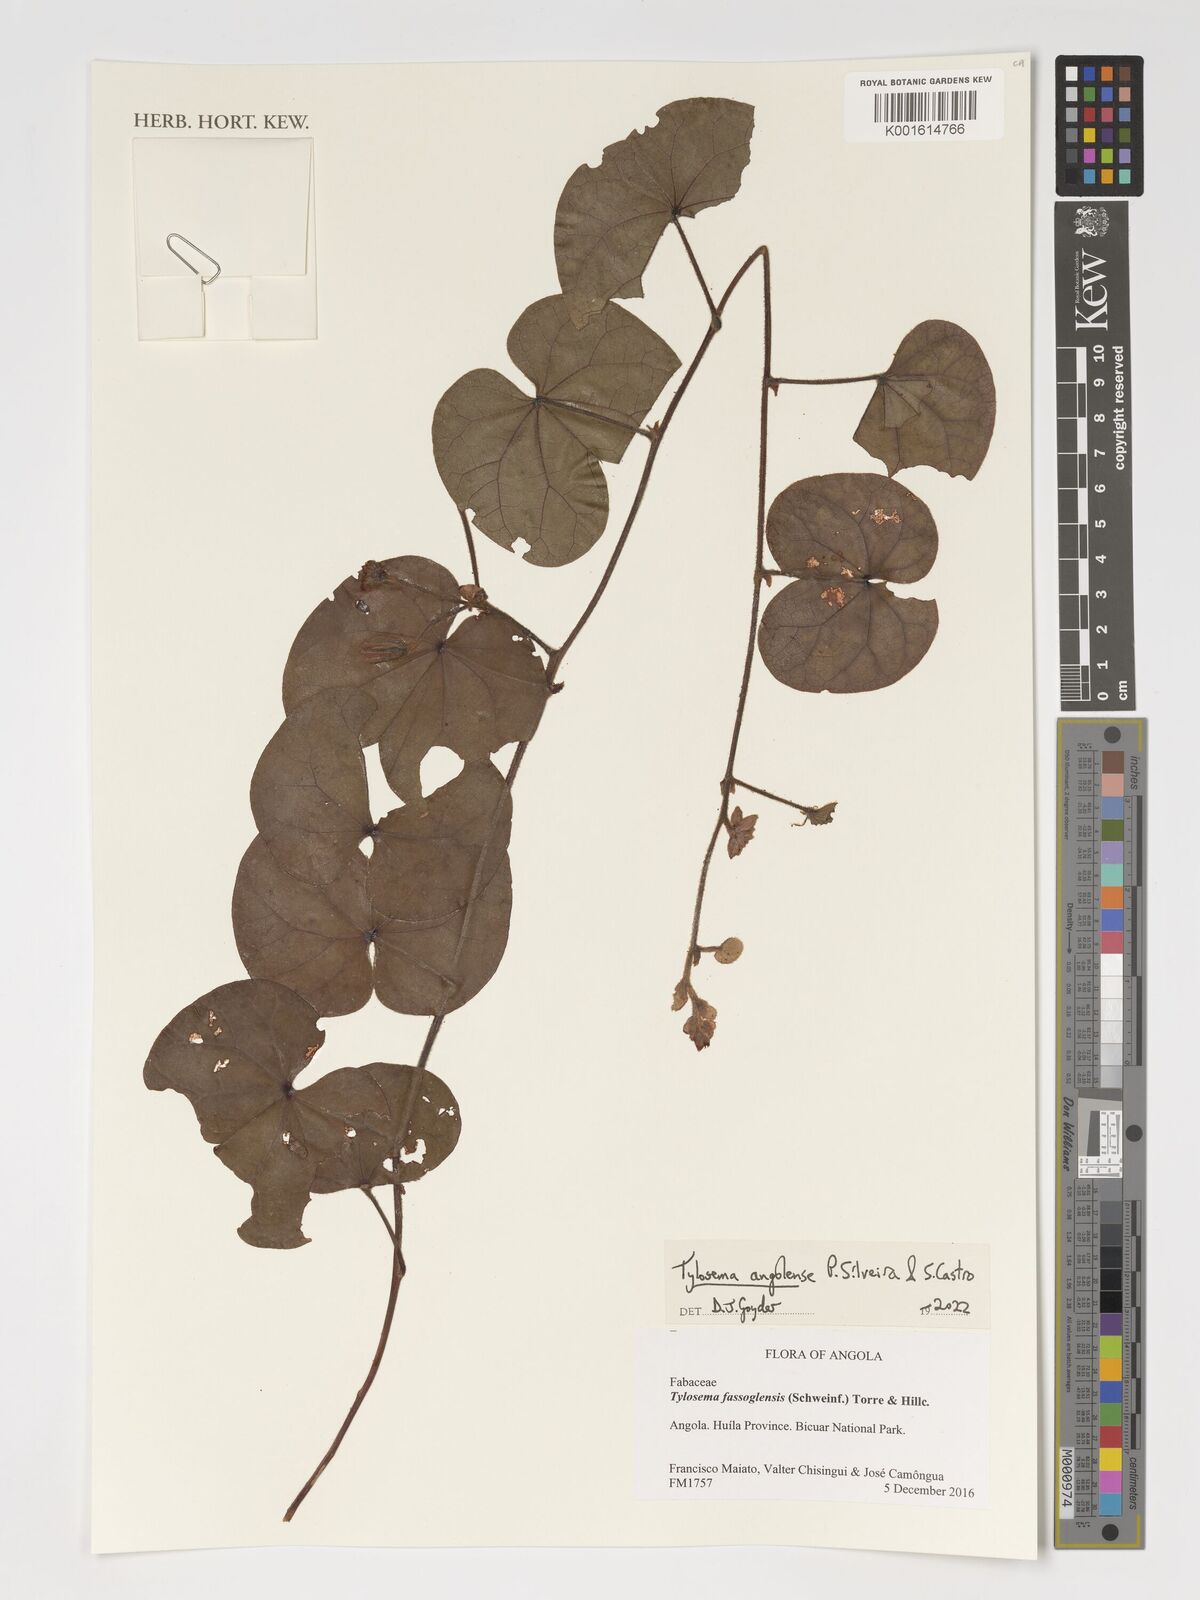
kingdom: Plantae
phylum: Tracheophyta
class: Magnoliopsida
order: Fabales
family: Fabaceae
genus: Tylosema
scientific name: Tylosema angolense
